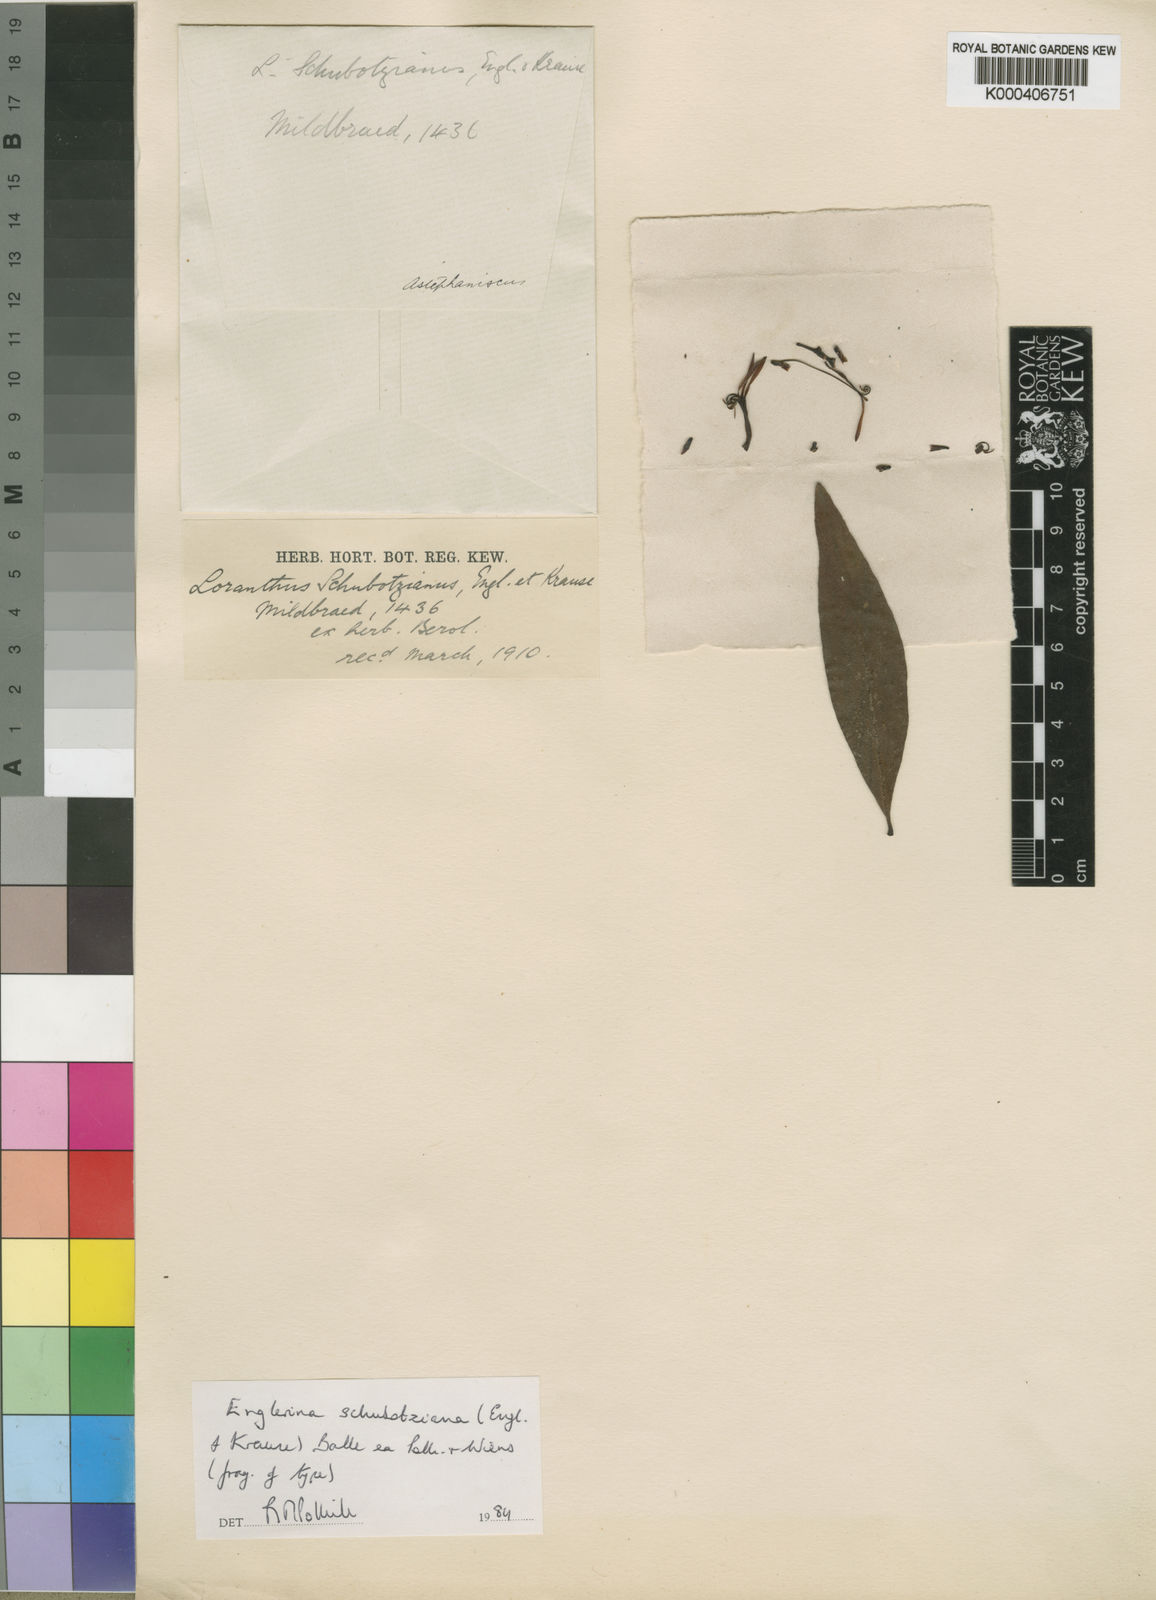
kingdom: Plantae
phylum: Tracheophyta
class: Magnoliopsida
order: Santalales
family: Loranthaceae
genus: Englerina
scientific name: Englerina schubotziana
